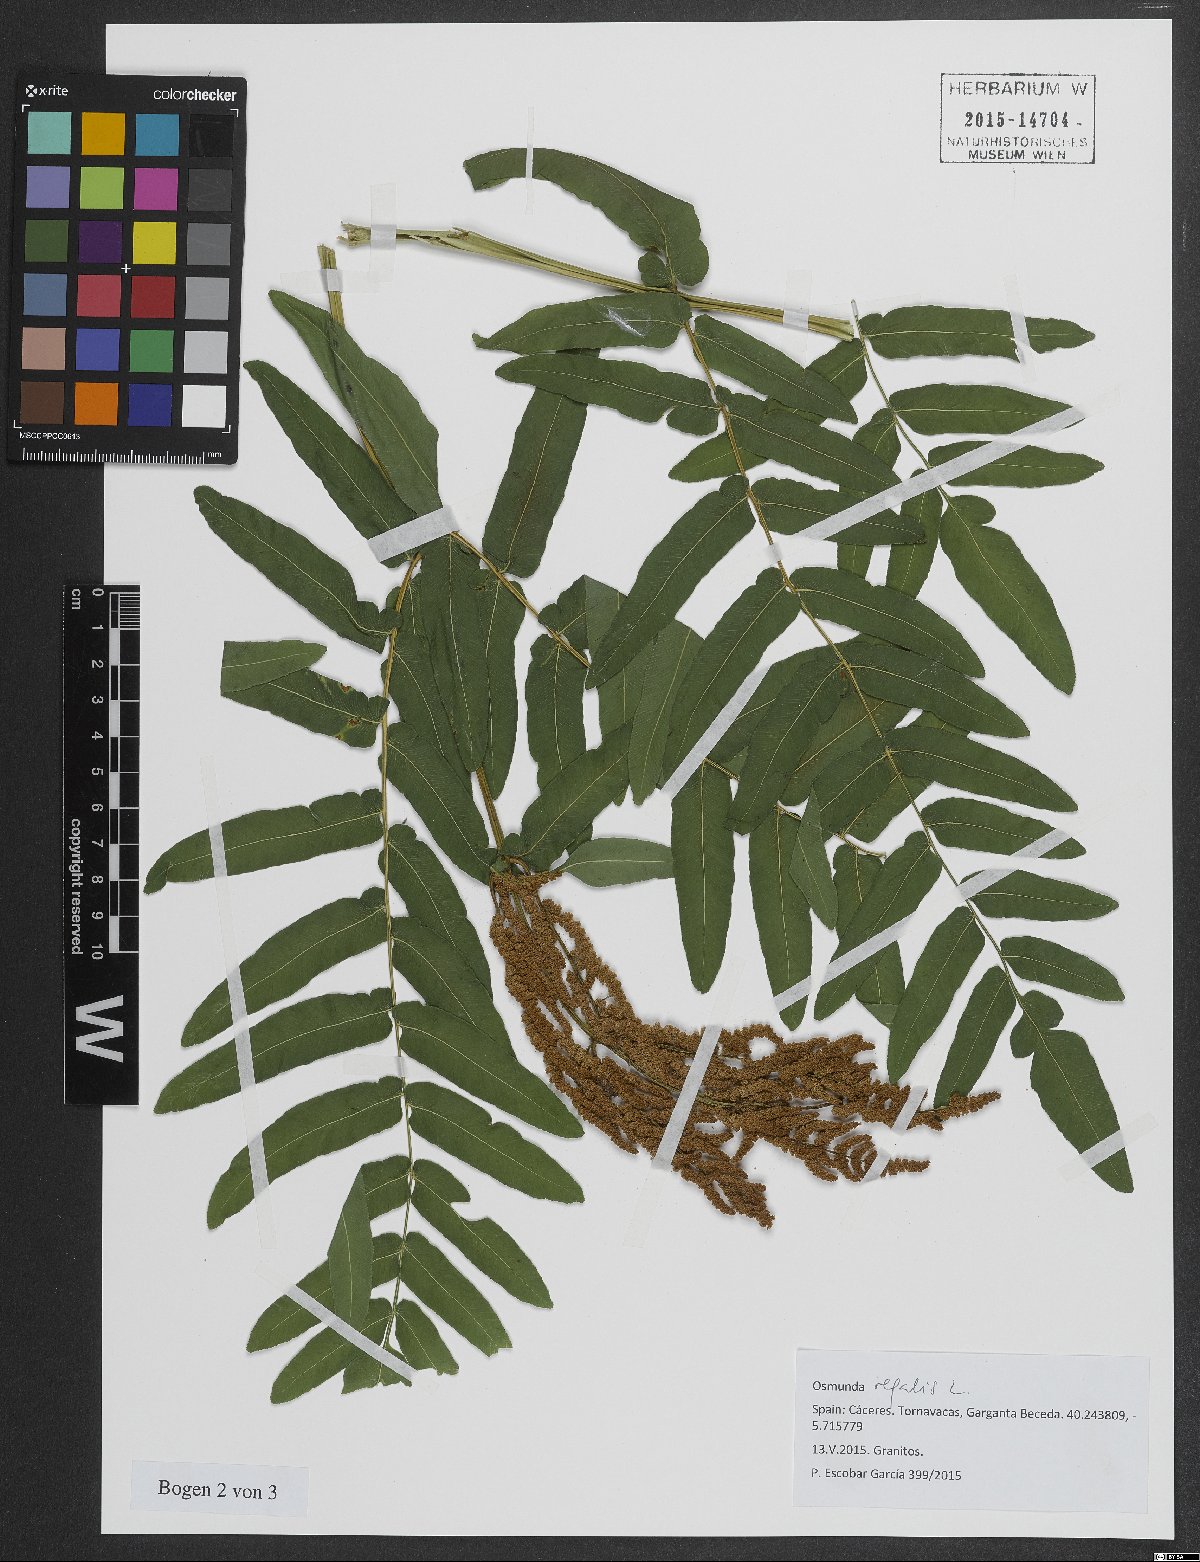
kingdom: Plantae
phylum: Tracheophyta
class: Polypodiopsida
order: Osmundales
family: Osmundaceae
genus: Osmunda
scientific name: Osmunda regalis
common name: Royal fern
